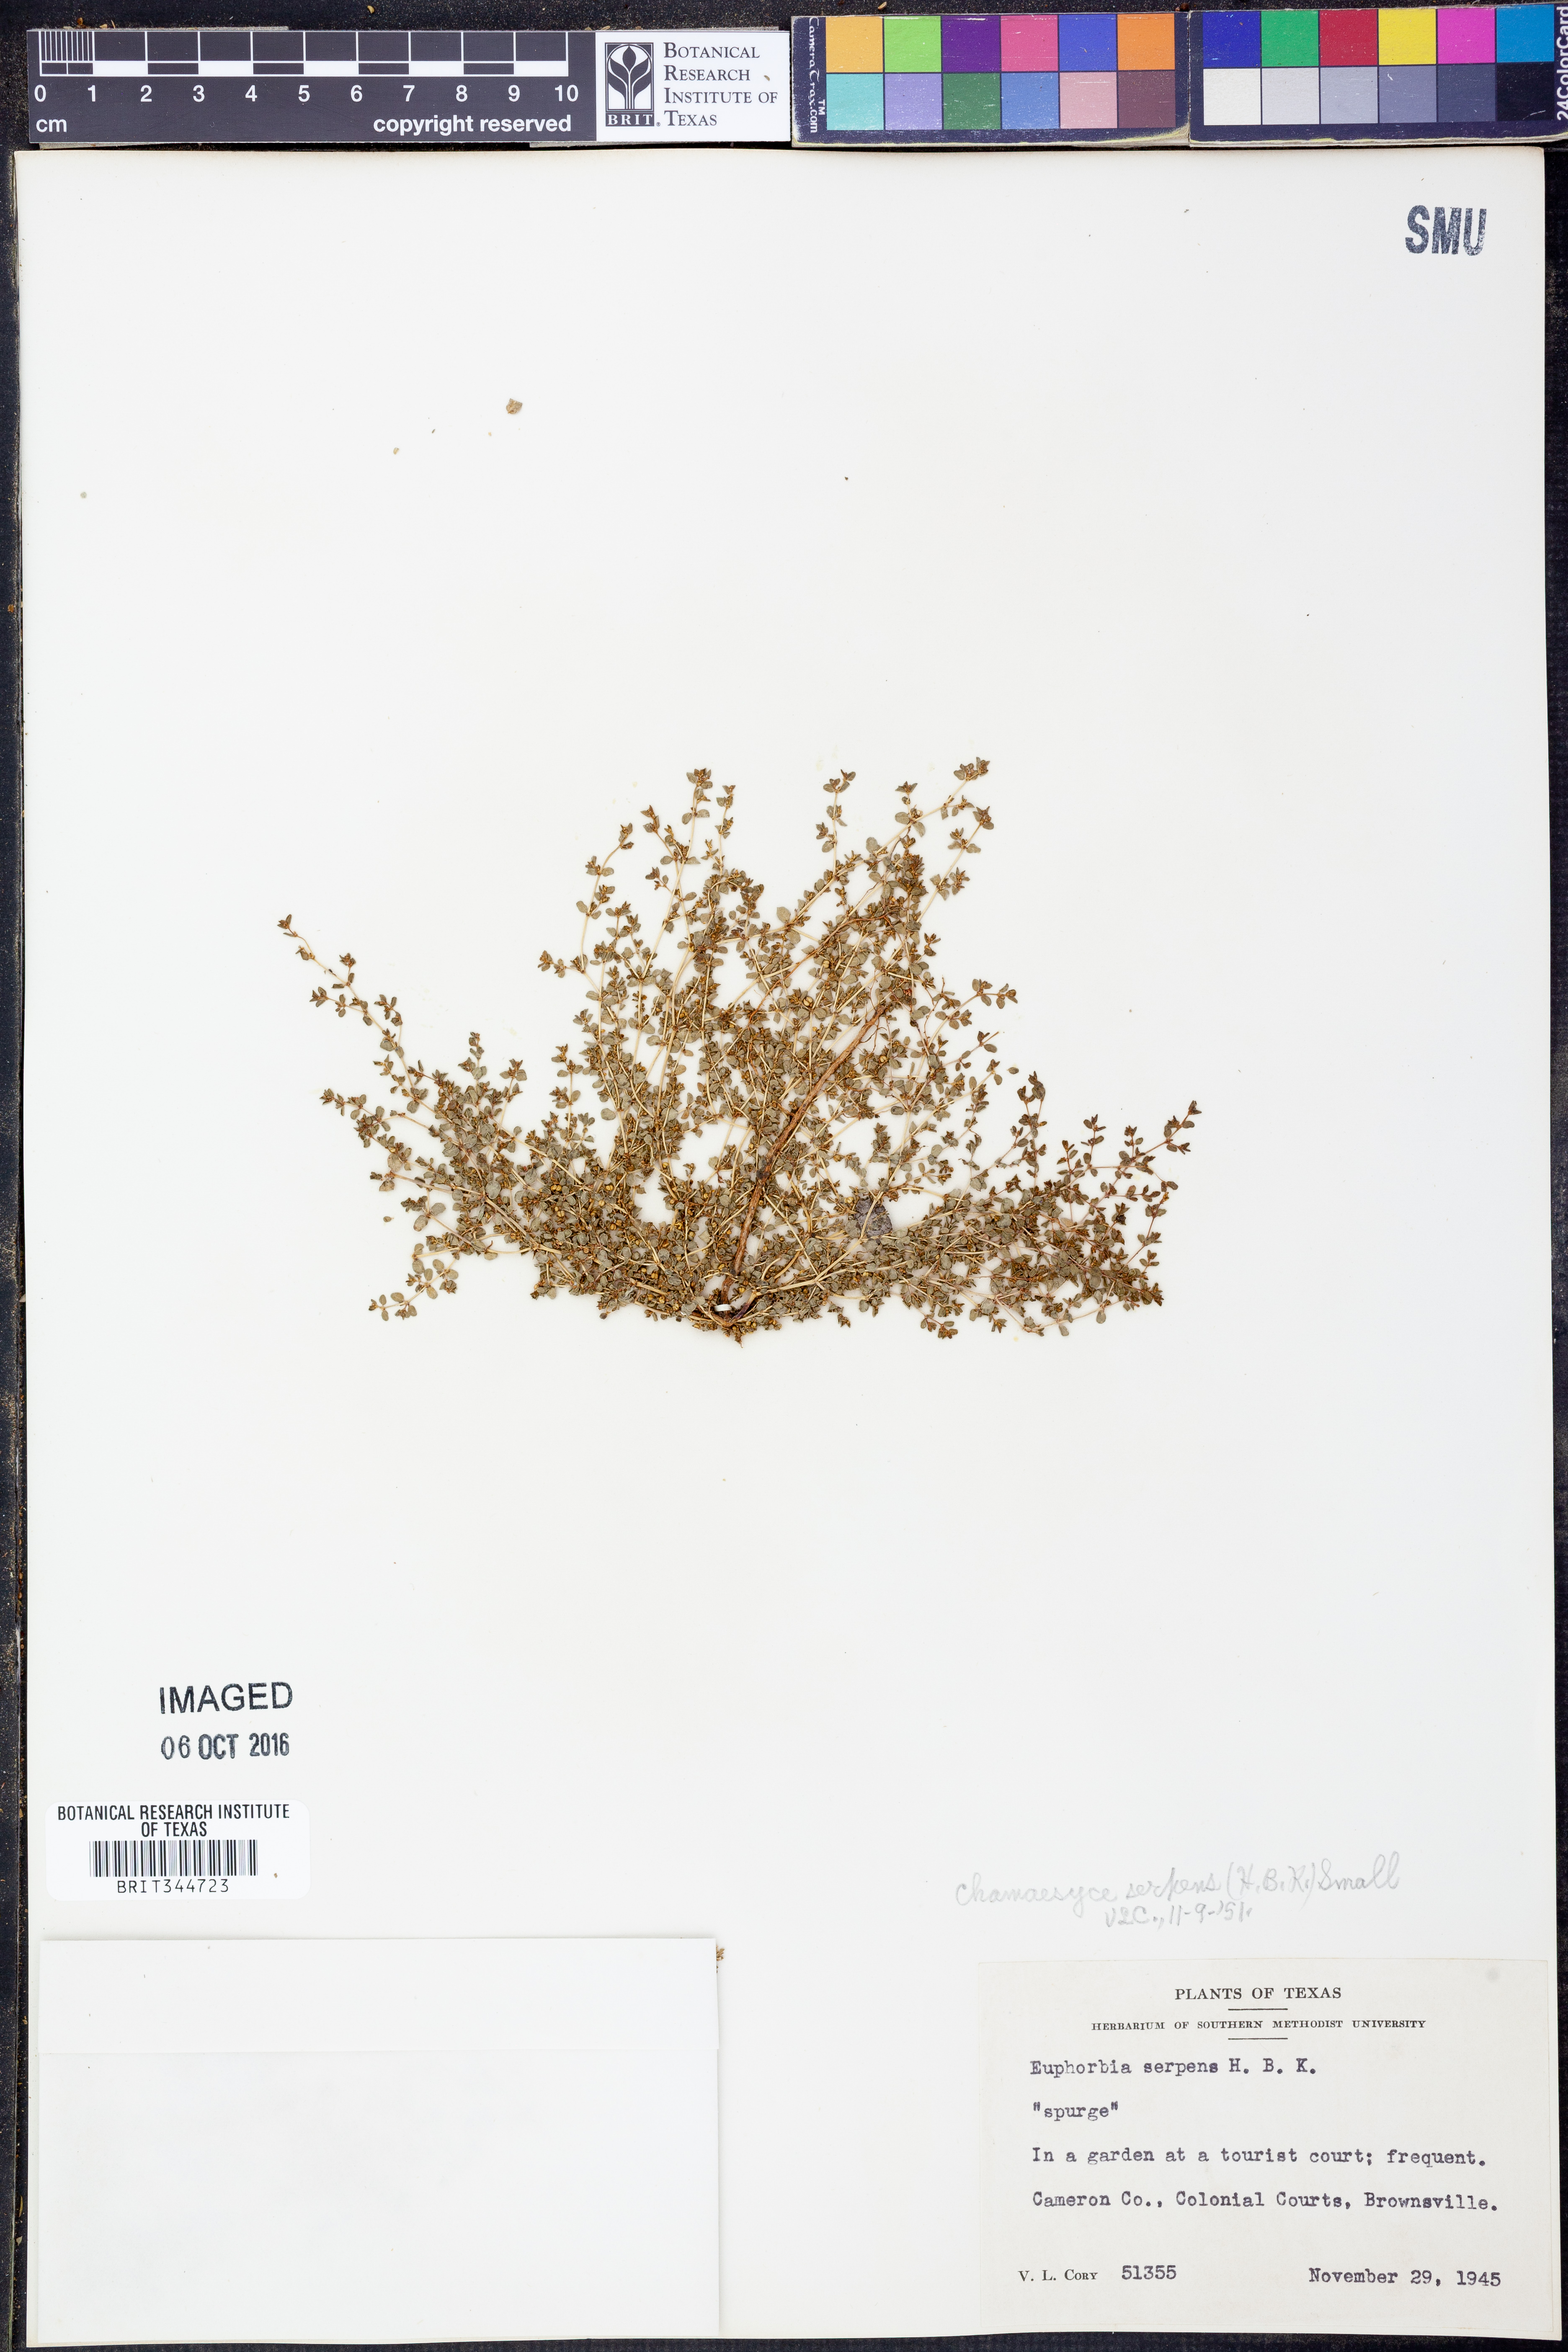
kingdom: Plantae
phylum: Tracheophyta
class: Magnoliopsida
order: Malpighiales
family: Euphorbiaceae
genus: Euphorbia
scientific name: Euphorbia serpens
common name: Matted sandmat
